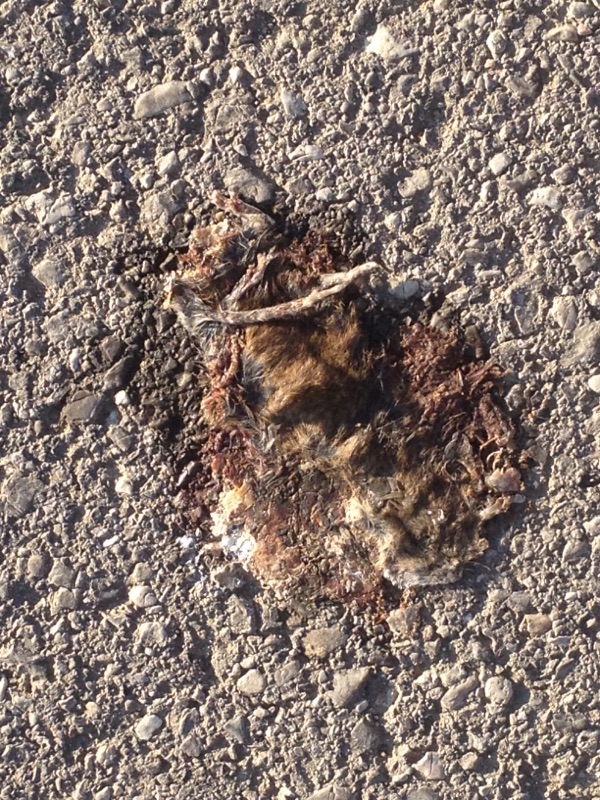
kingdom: Animalia
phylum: Chordata
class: Mammalia
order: Rodentia
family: Muridae
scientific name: Muridae
